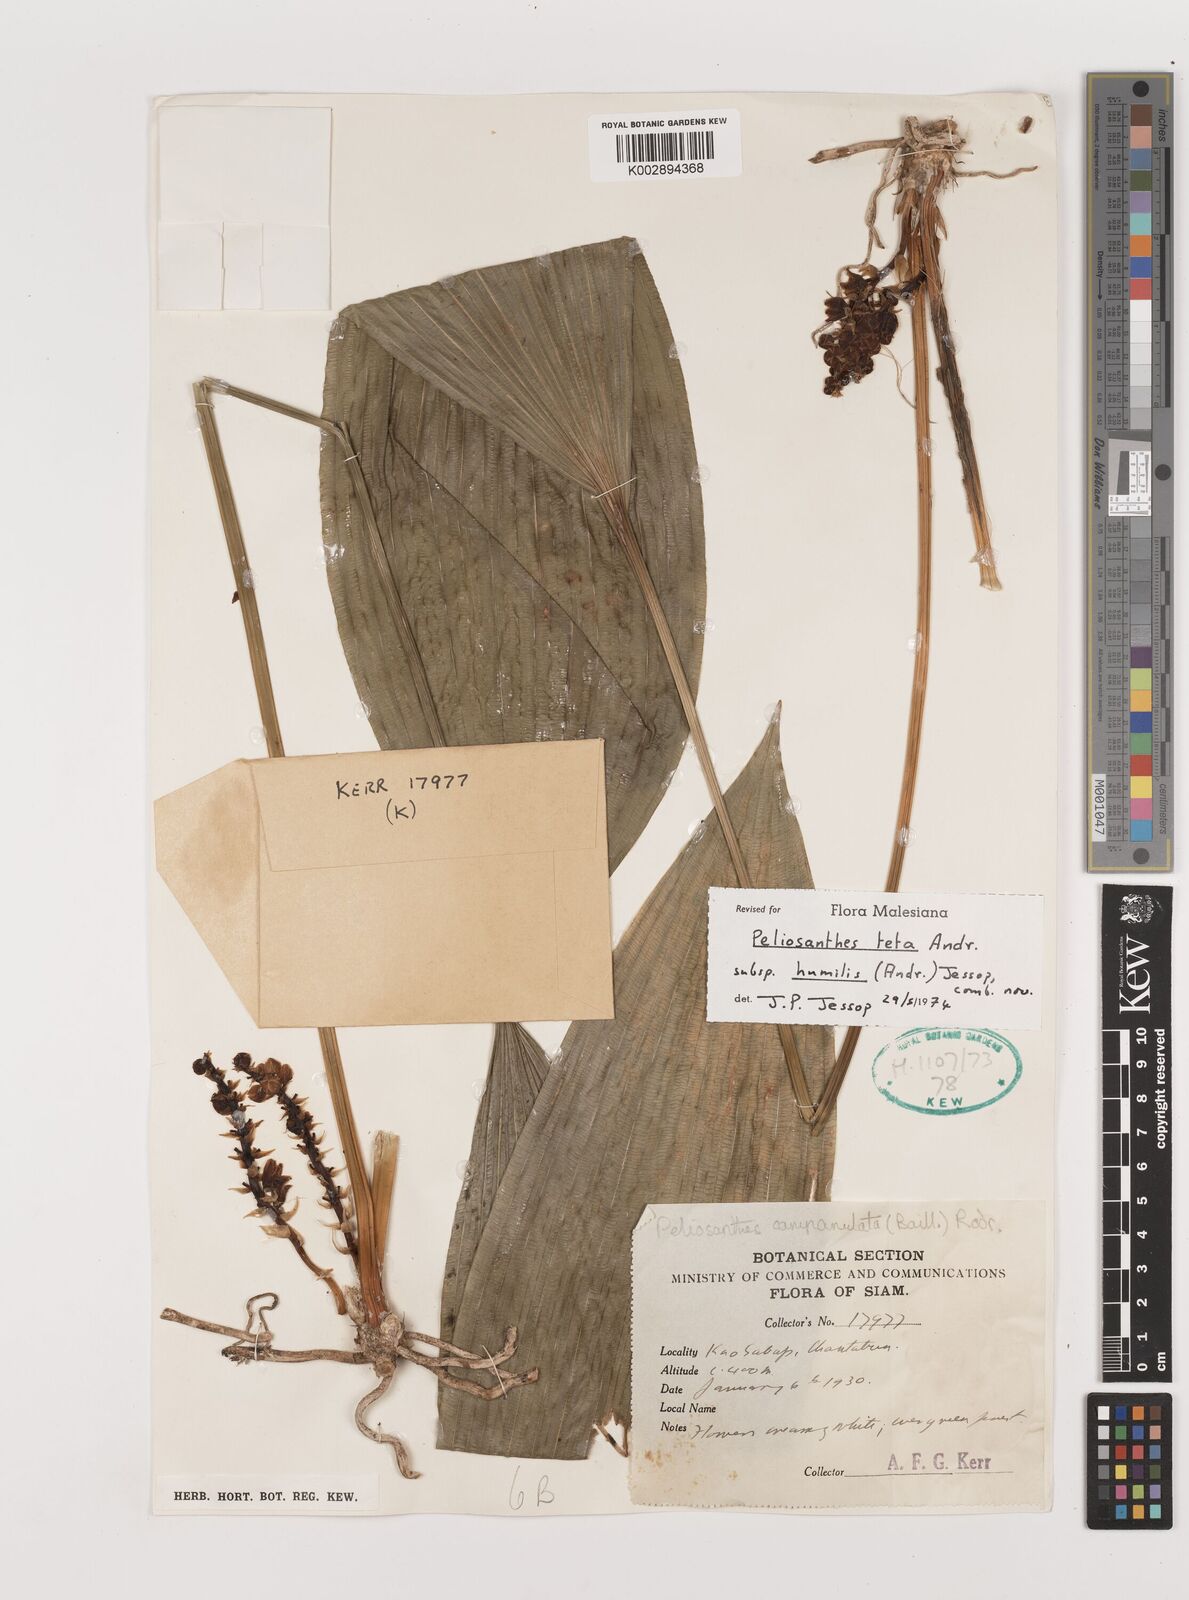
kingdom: Plantae
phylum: Tracheophyta
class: Liliopsida
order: Asparagales
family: Asparagaceae
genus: Peliosanthes
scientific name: Peliosanthes teta
